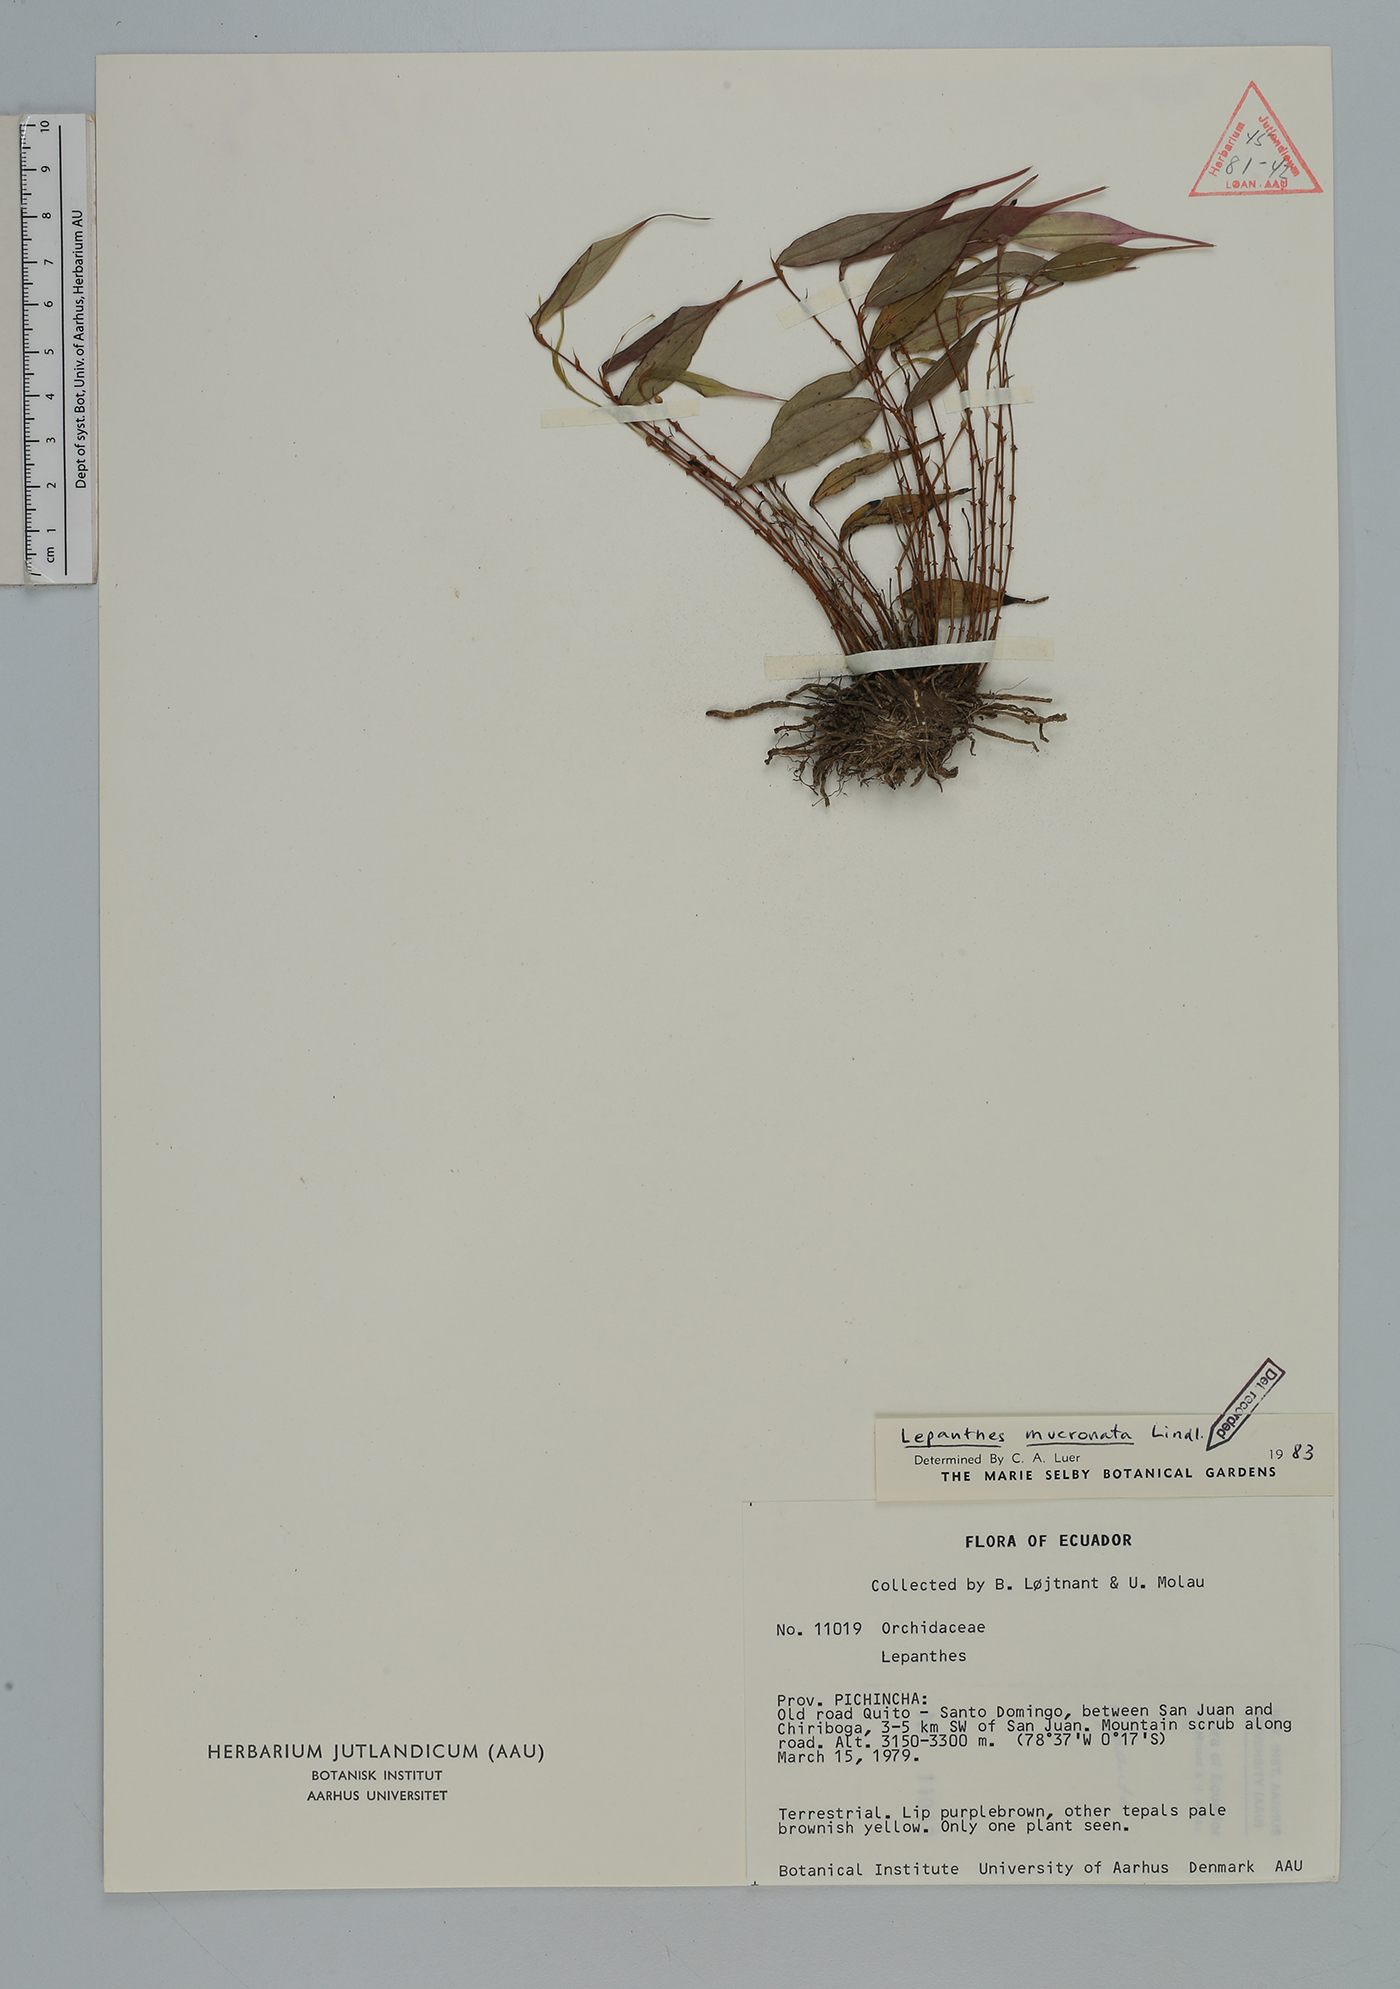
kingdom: Plantae
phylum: Tracheophyta
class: Liliopsida
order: Asparagales
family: Orchidaceae
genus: Lepanthes
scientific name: Lepanthes mucronata
